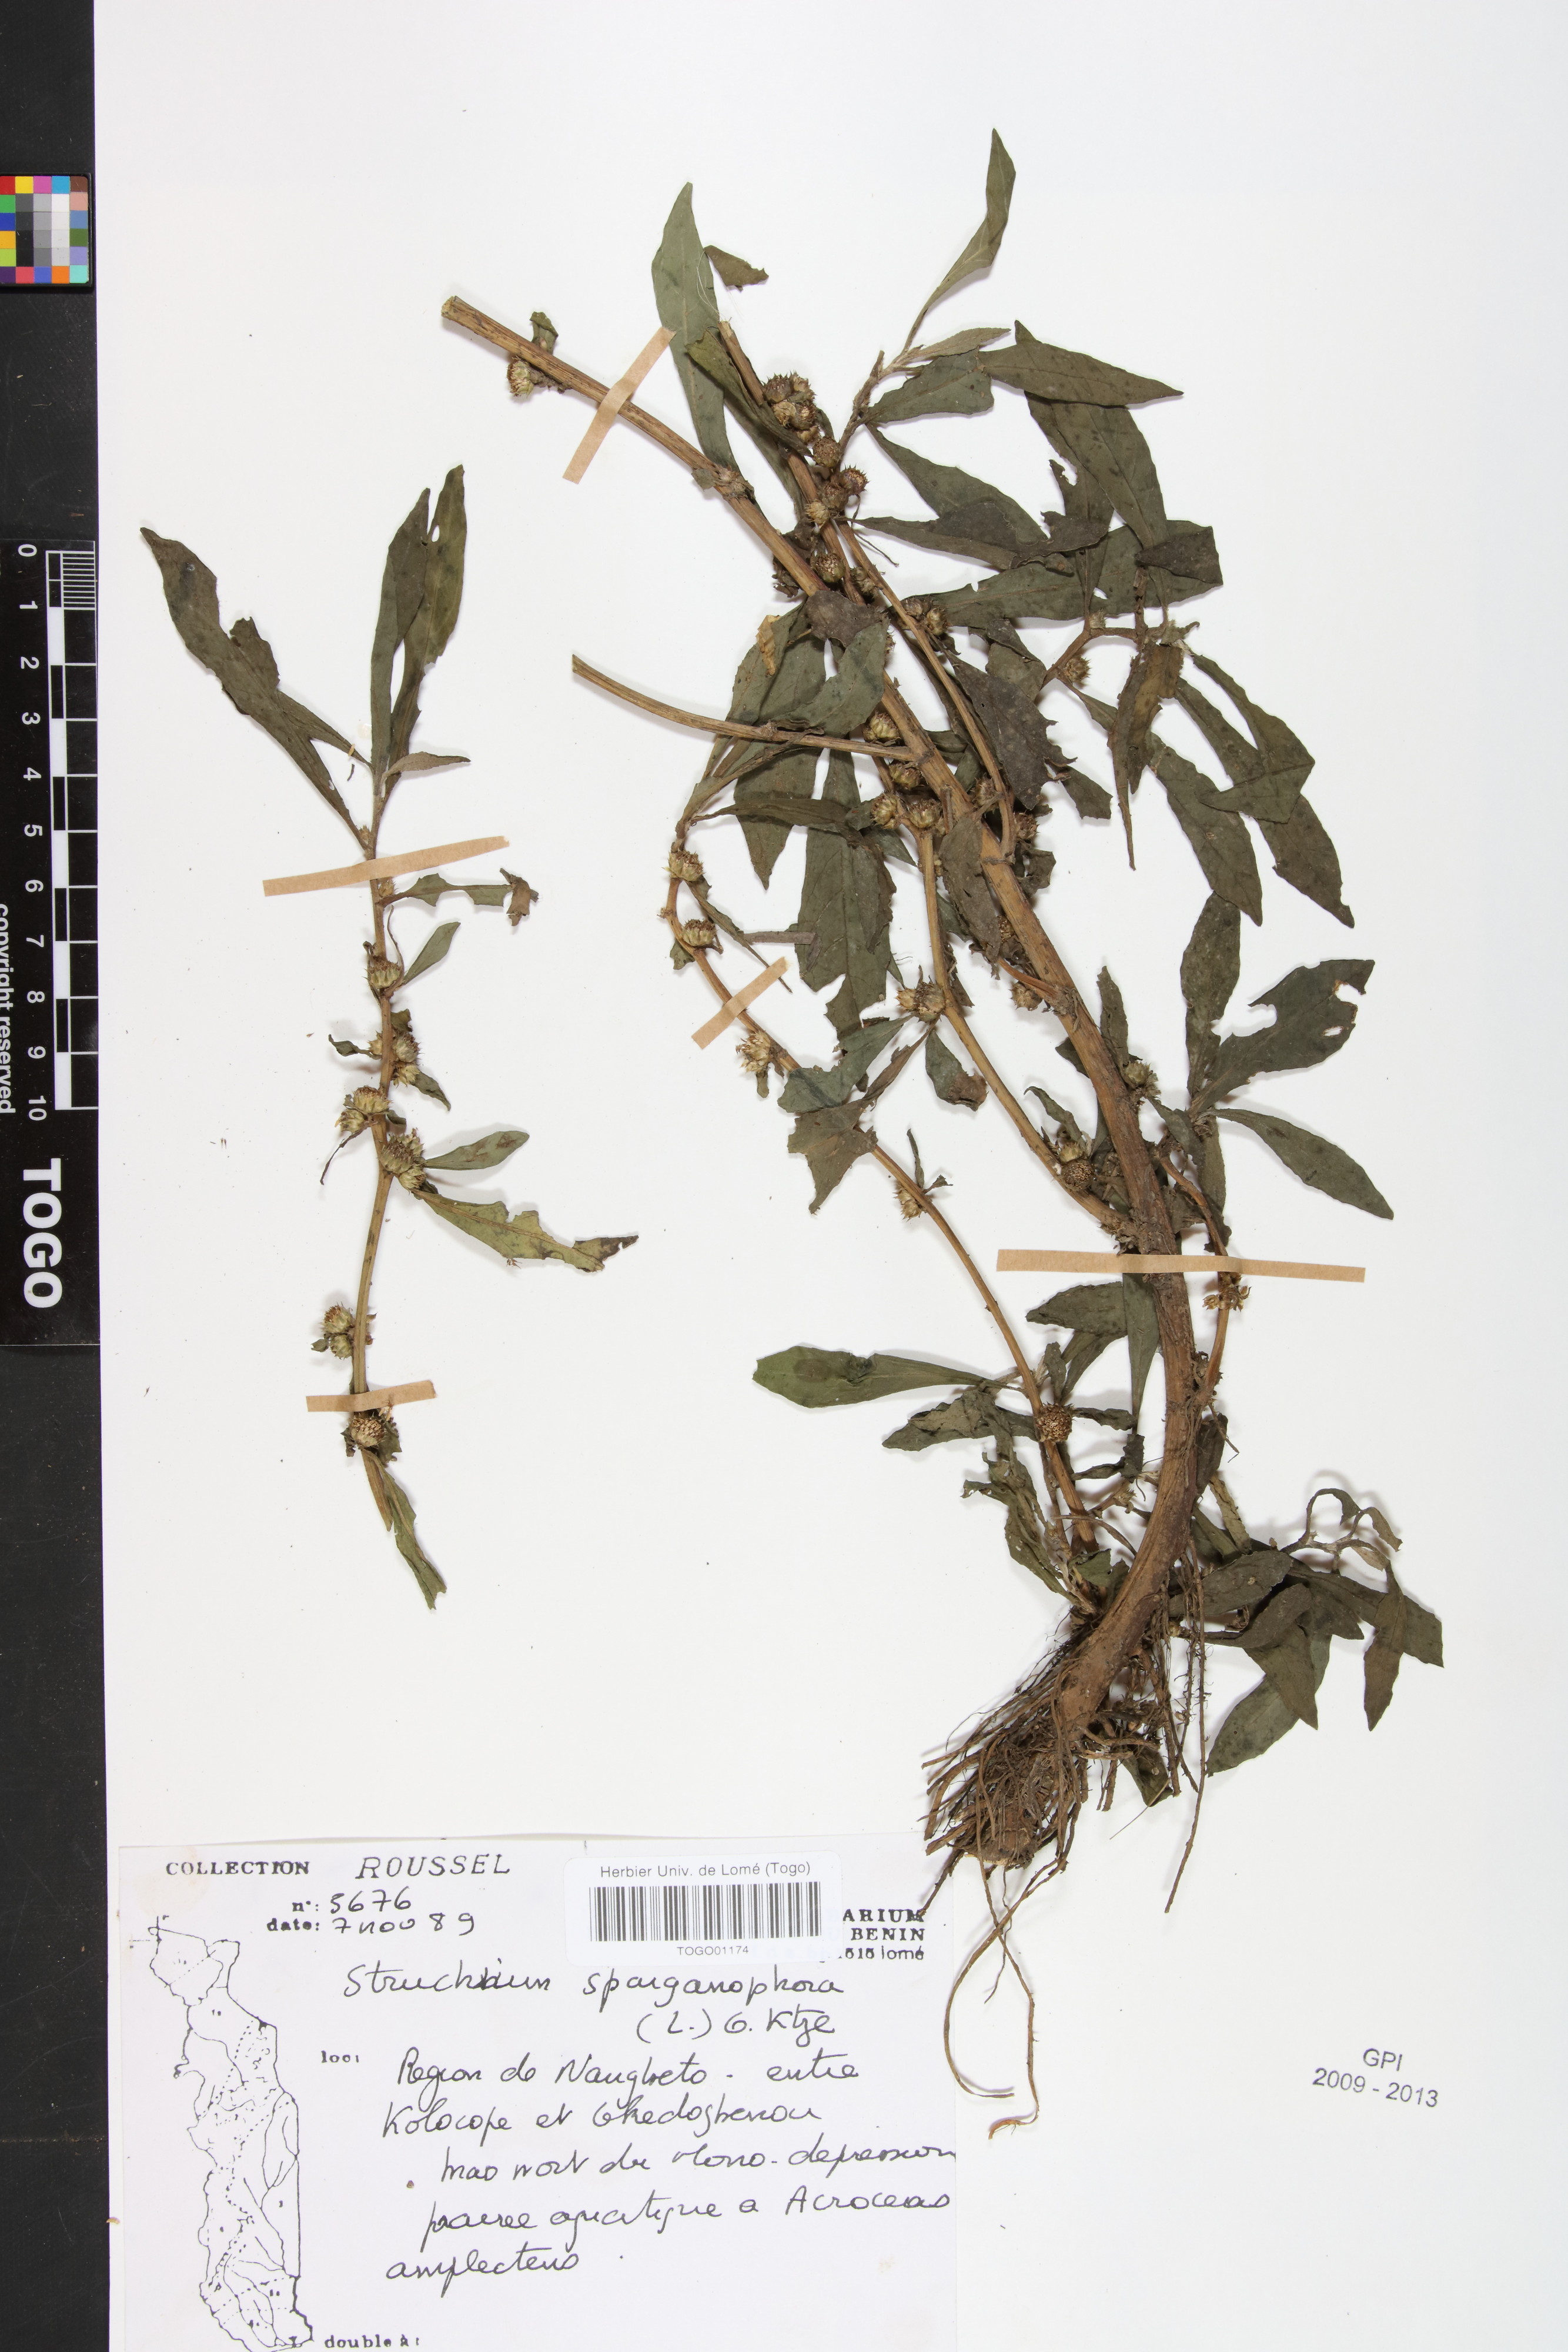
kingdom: Plantae
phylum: Tracheophyta
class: Magnoliopsida
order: Asterales
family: Asteraceae
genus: Struchium
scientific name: Struchium sparganophorum
